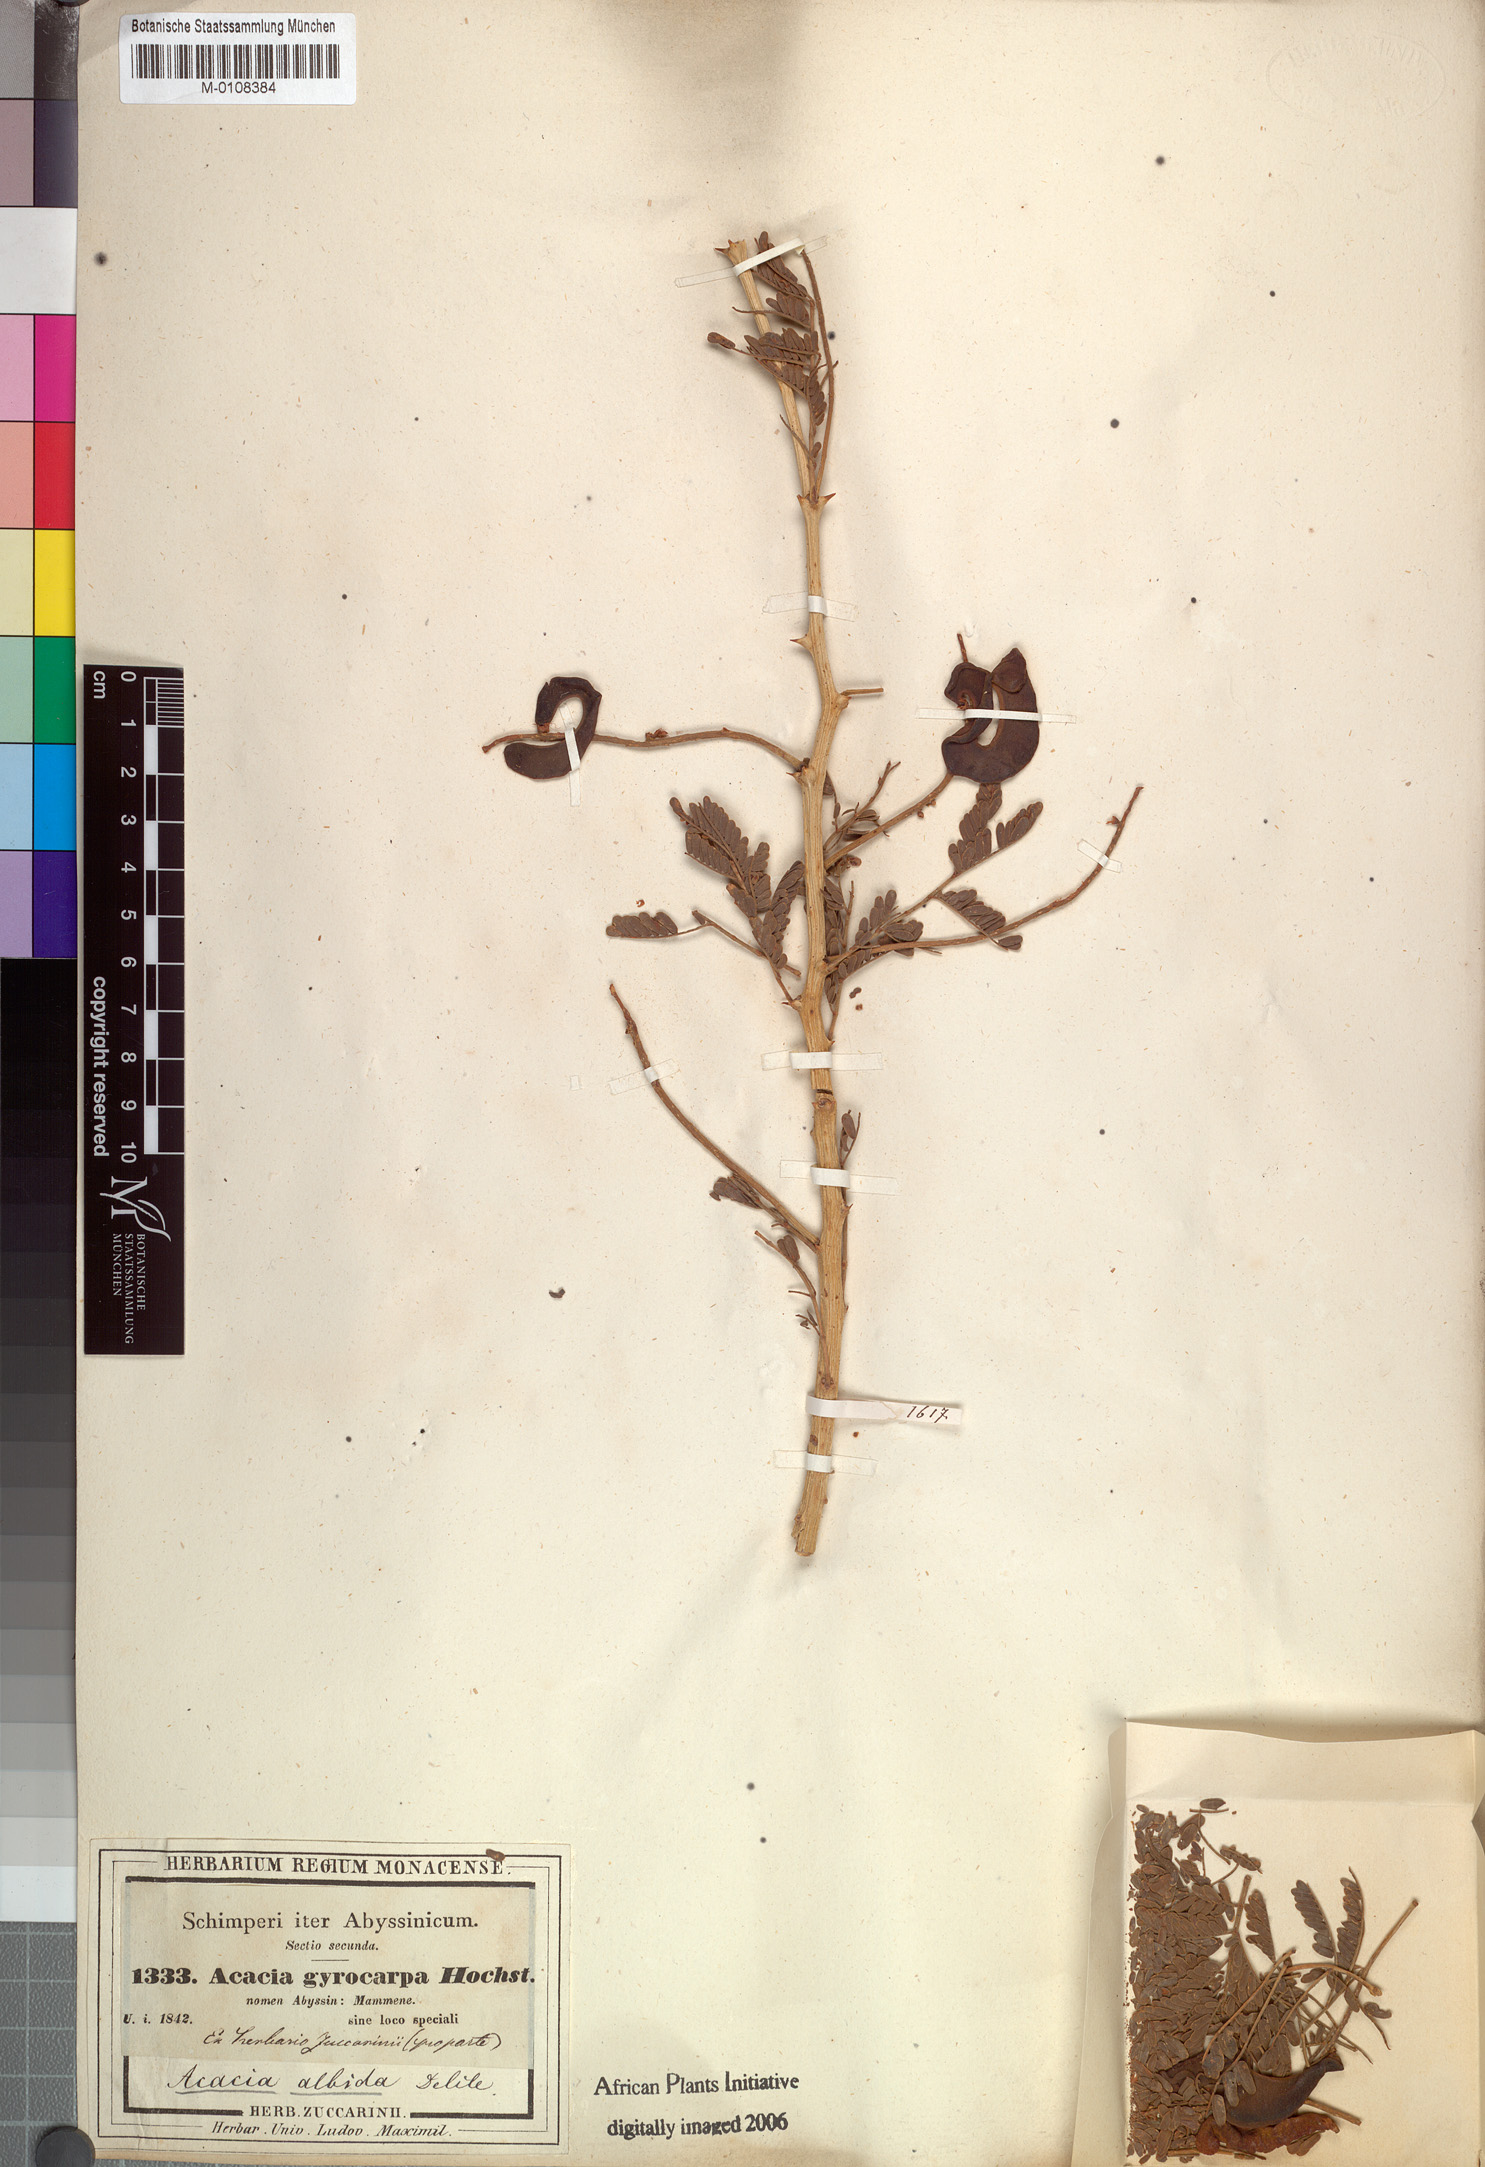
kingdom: Plantae
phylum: Tracheophyta
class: Magnoliopsida
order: Fabales
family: Fabaceae
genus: Faidherbia
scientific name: Faidherbia albida
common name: Anatree
